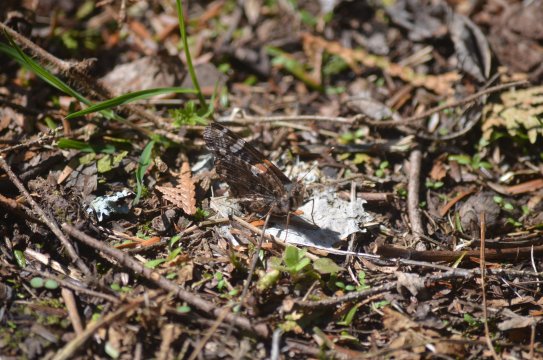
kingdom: Animalia
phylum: Arthropoda
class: Insecta
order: Lepidoptera
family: Nymphalidae
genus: Vanessa
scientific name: Vanessa atalanta
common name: Red Admiral
